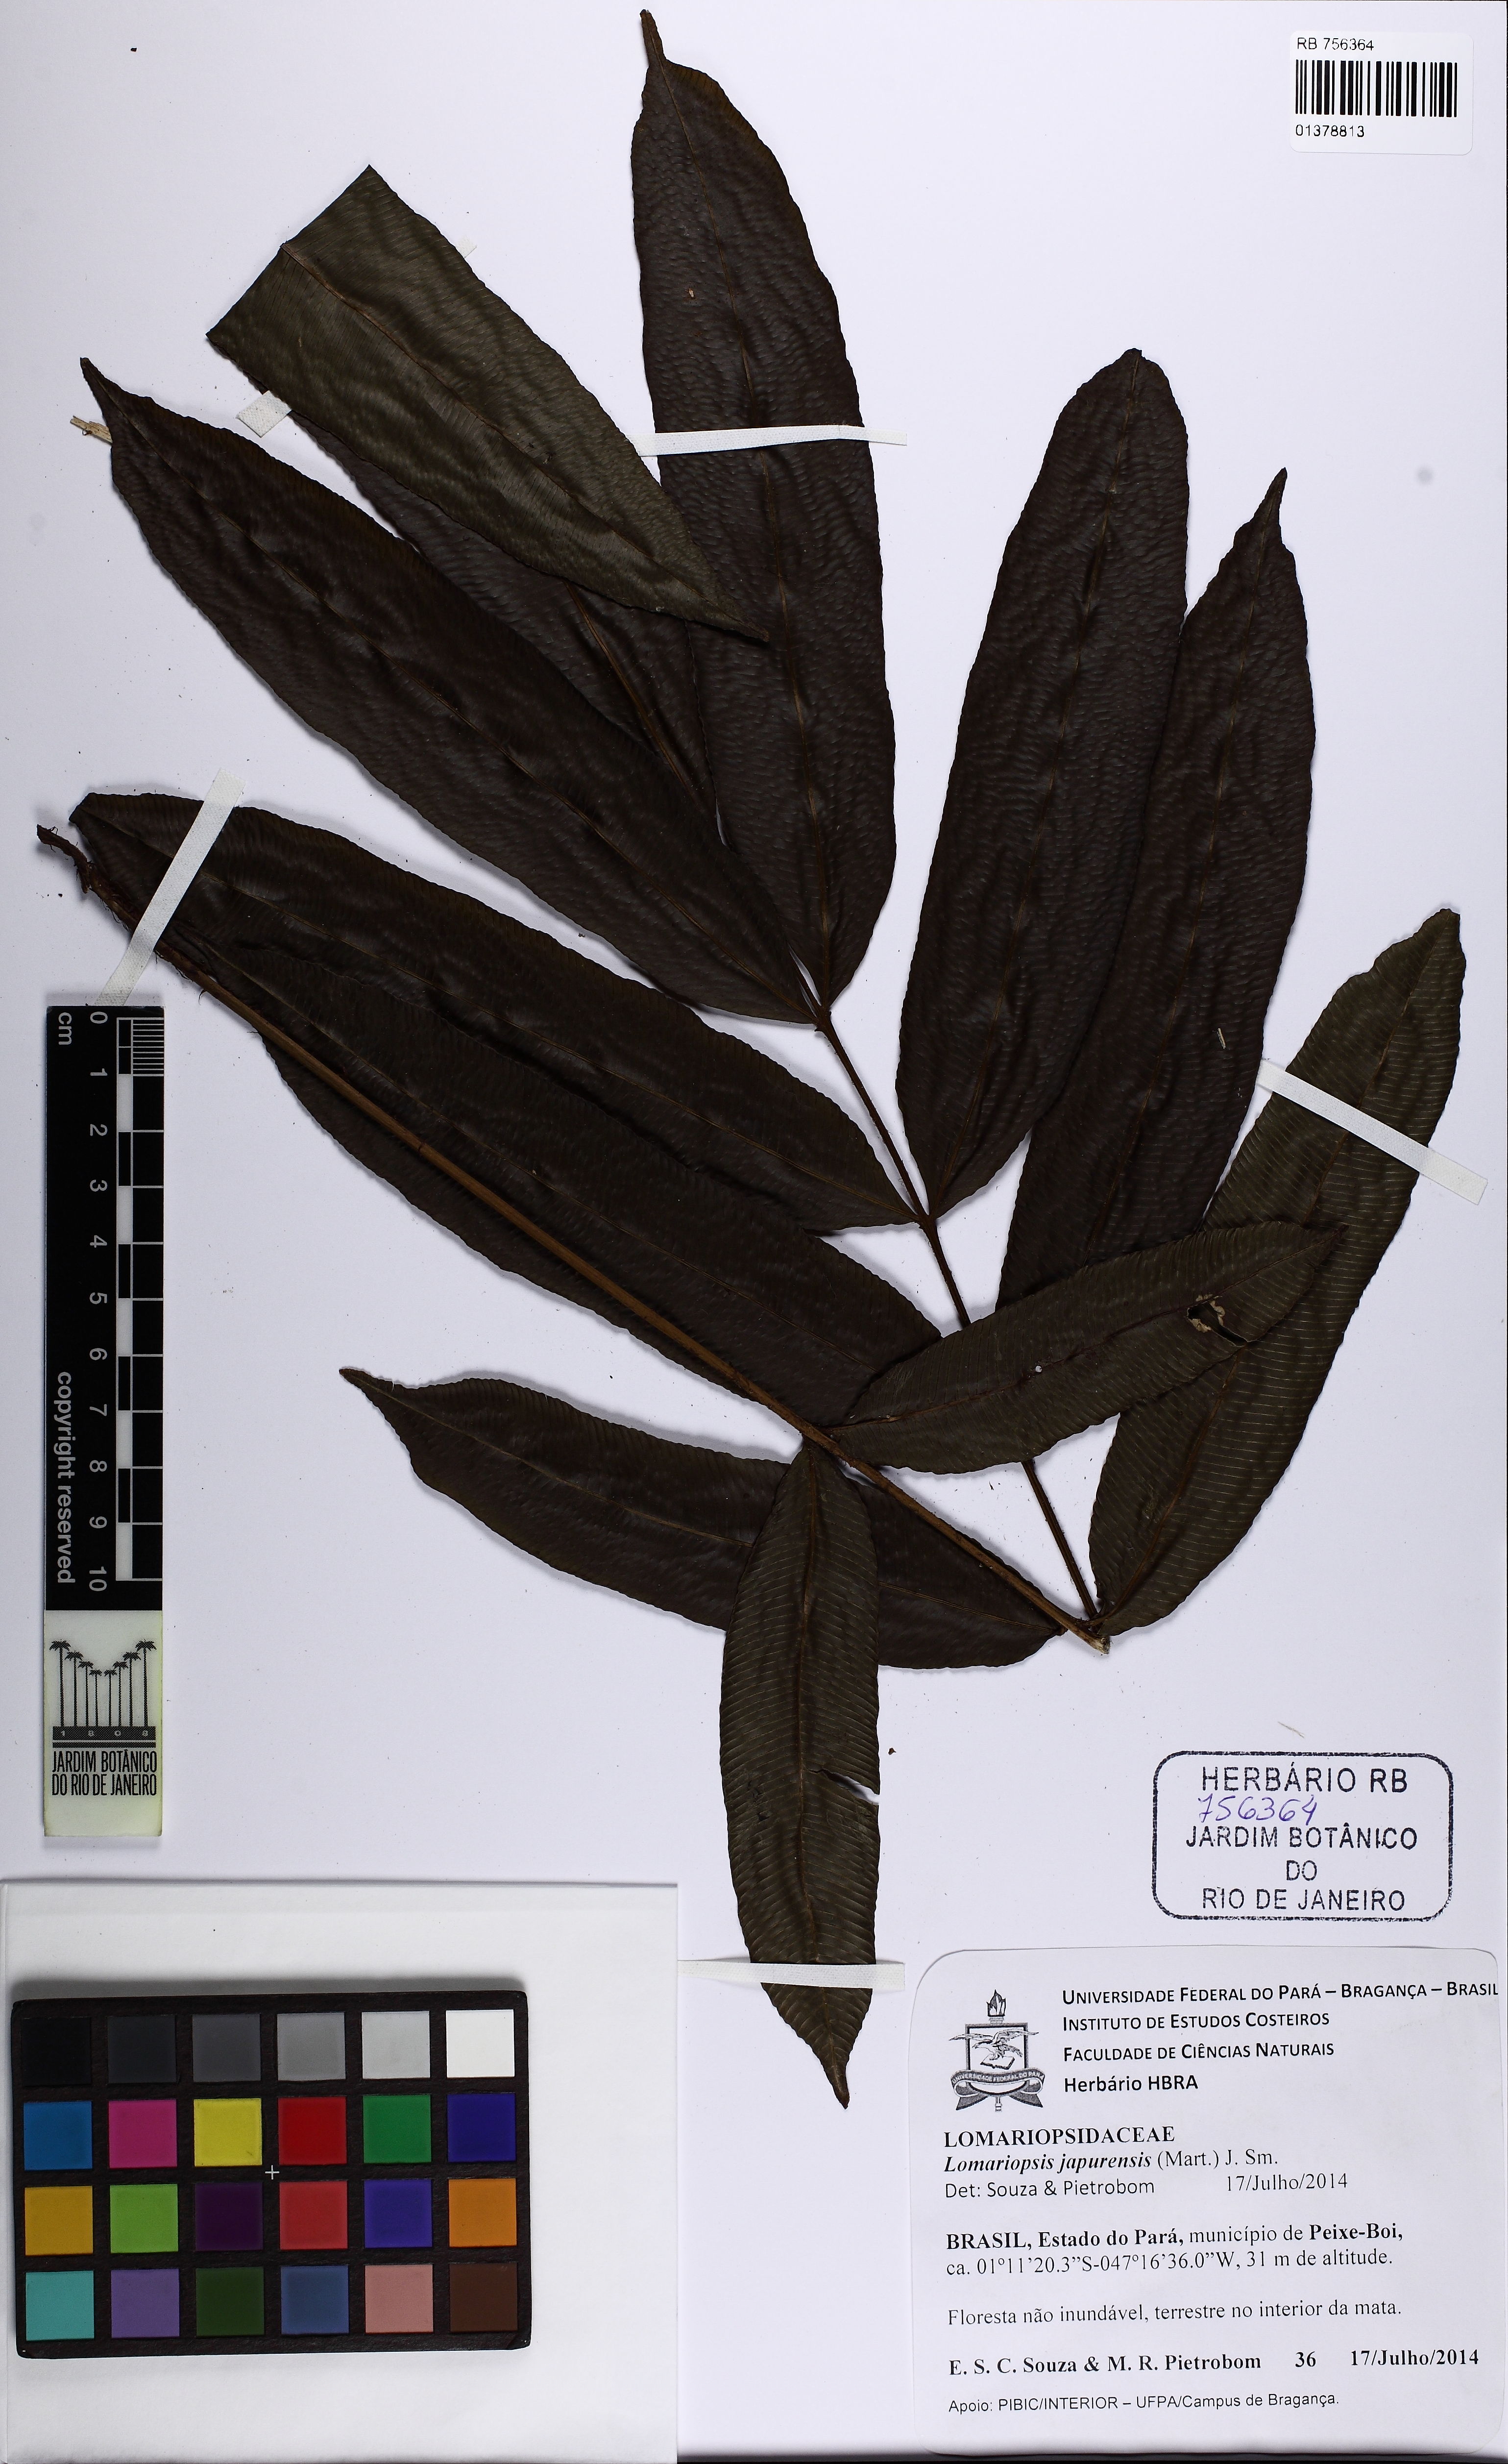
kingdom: Plantae
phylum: Tracheophyta
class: Polypodiopsida
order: Polypodiales
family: Lomariopsidaceae
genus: Lomariopsis
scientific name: Lomariopsis japurensis
